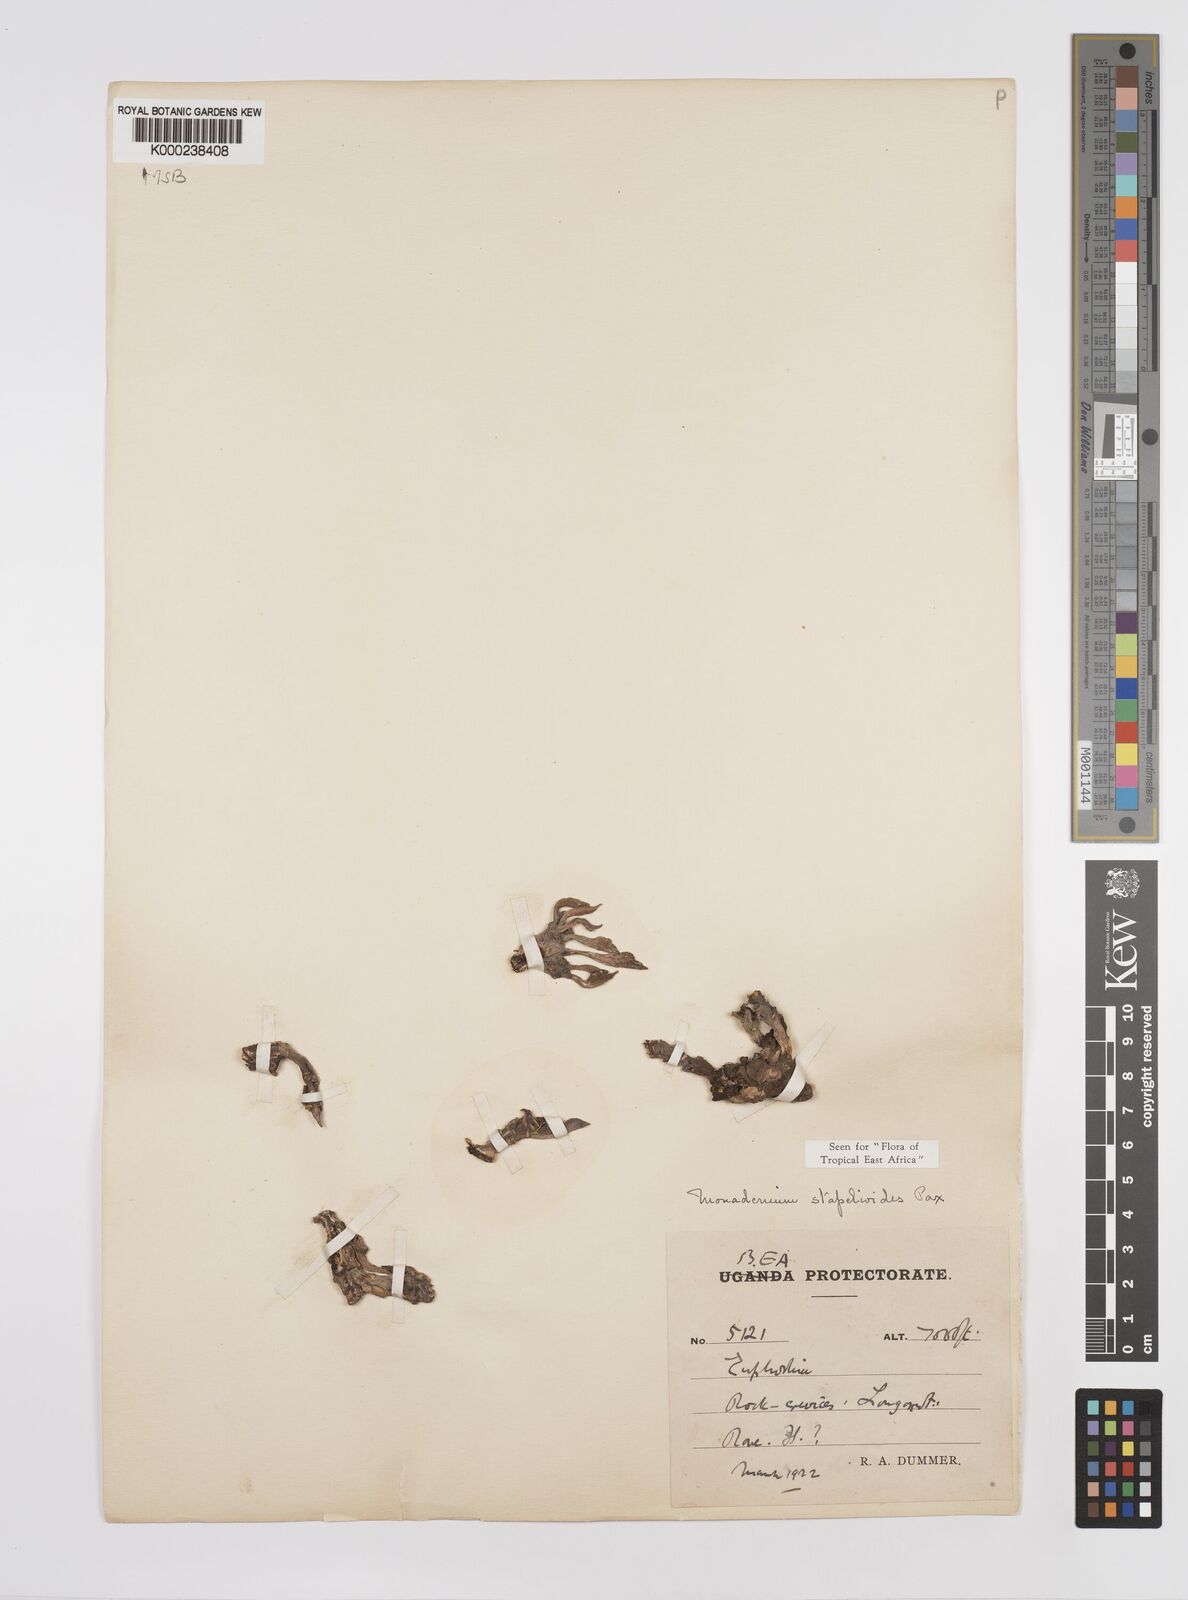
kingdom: Plantae
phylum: Tracheophyta
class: Magnoliopsida
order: Malpighiales
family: Euphorbiaceae
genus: Euphorbia
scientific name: Euphorbia succulenta
